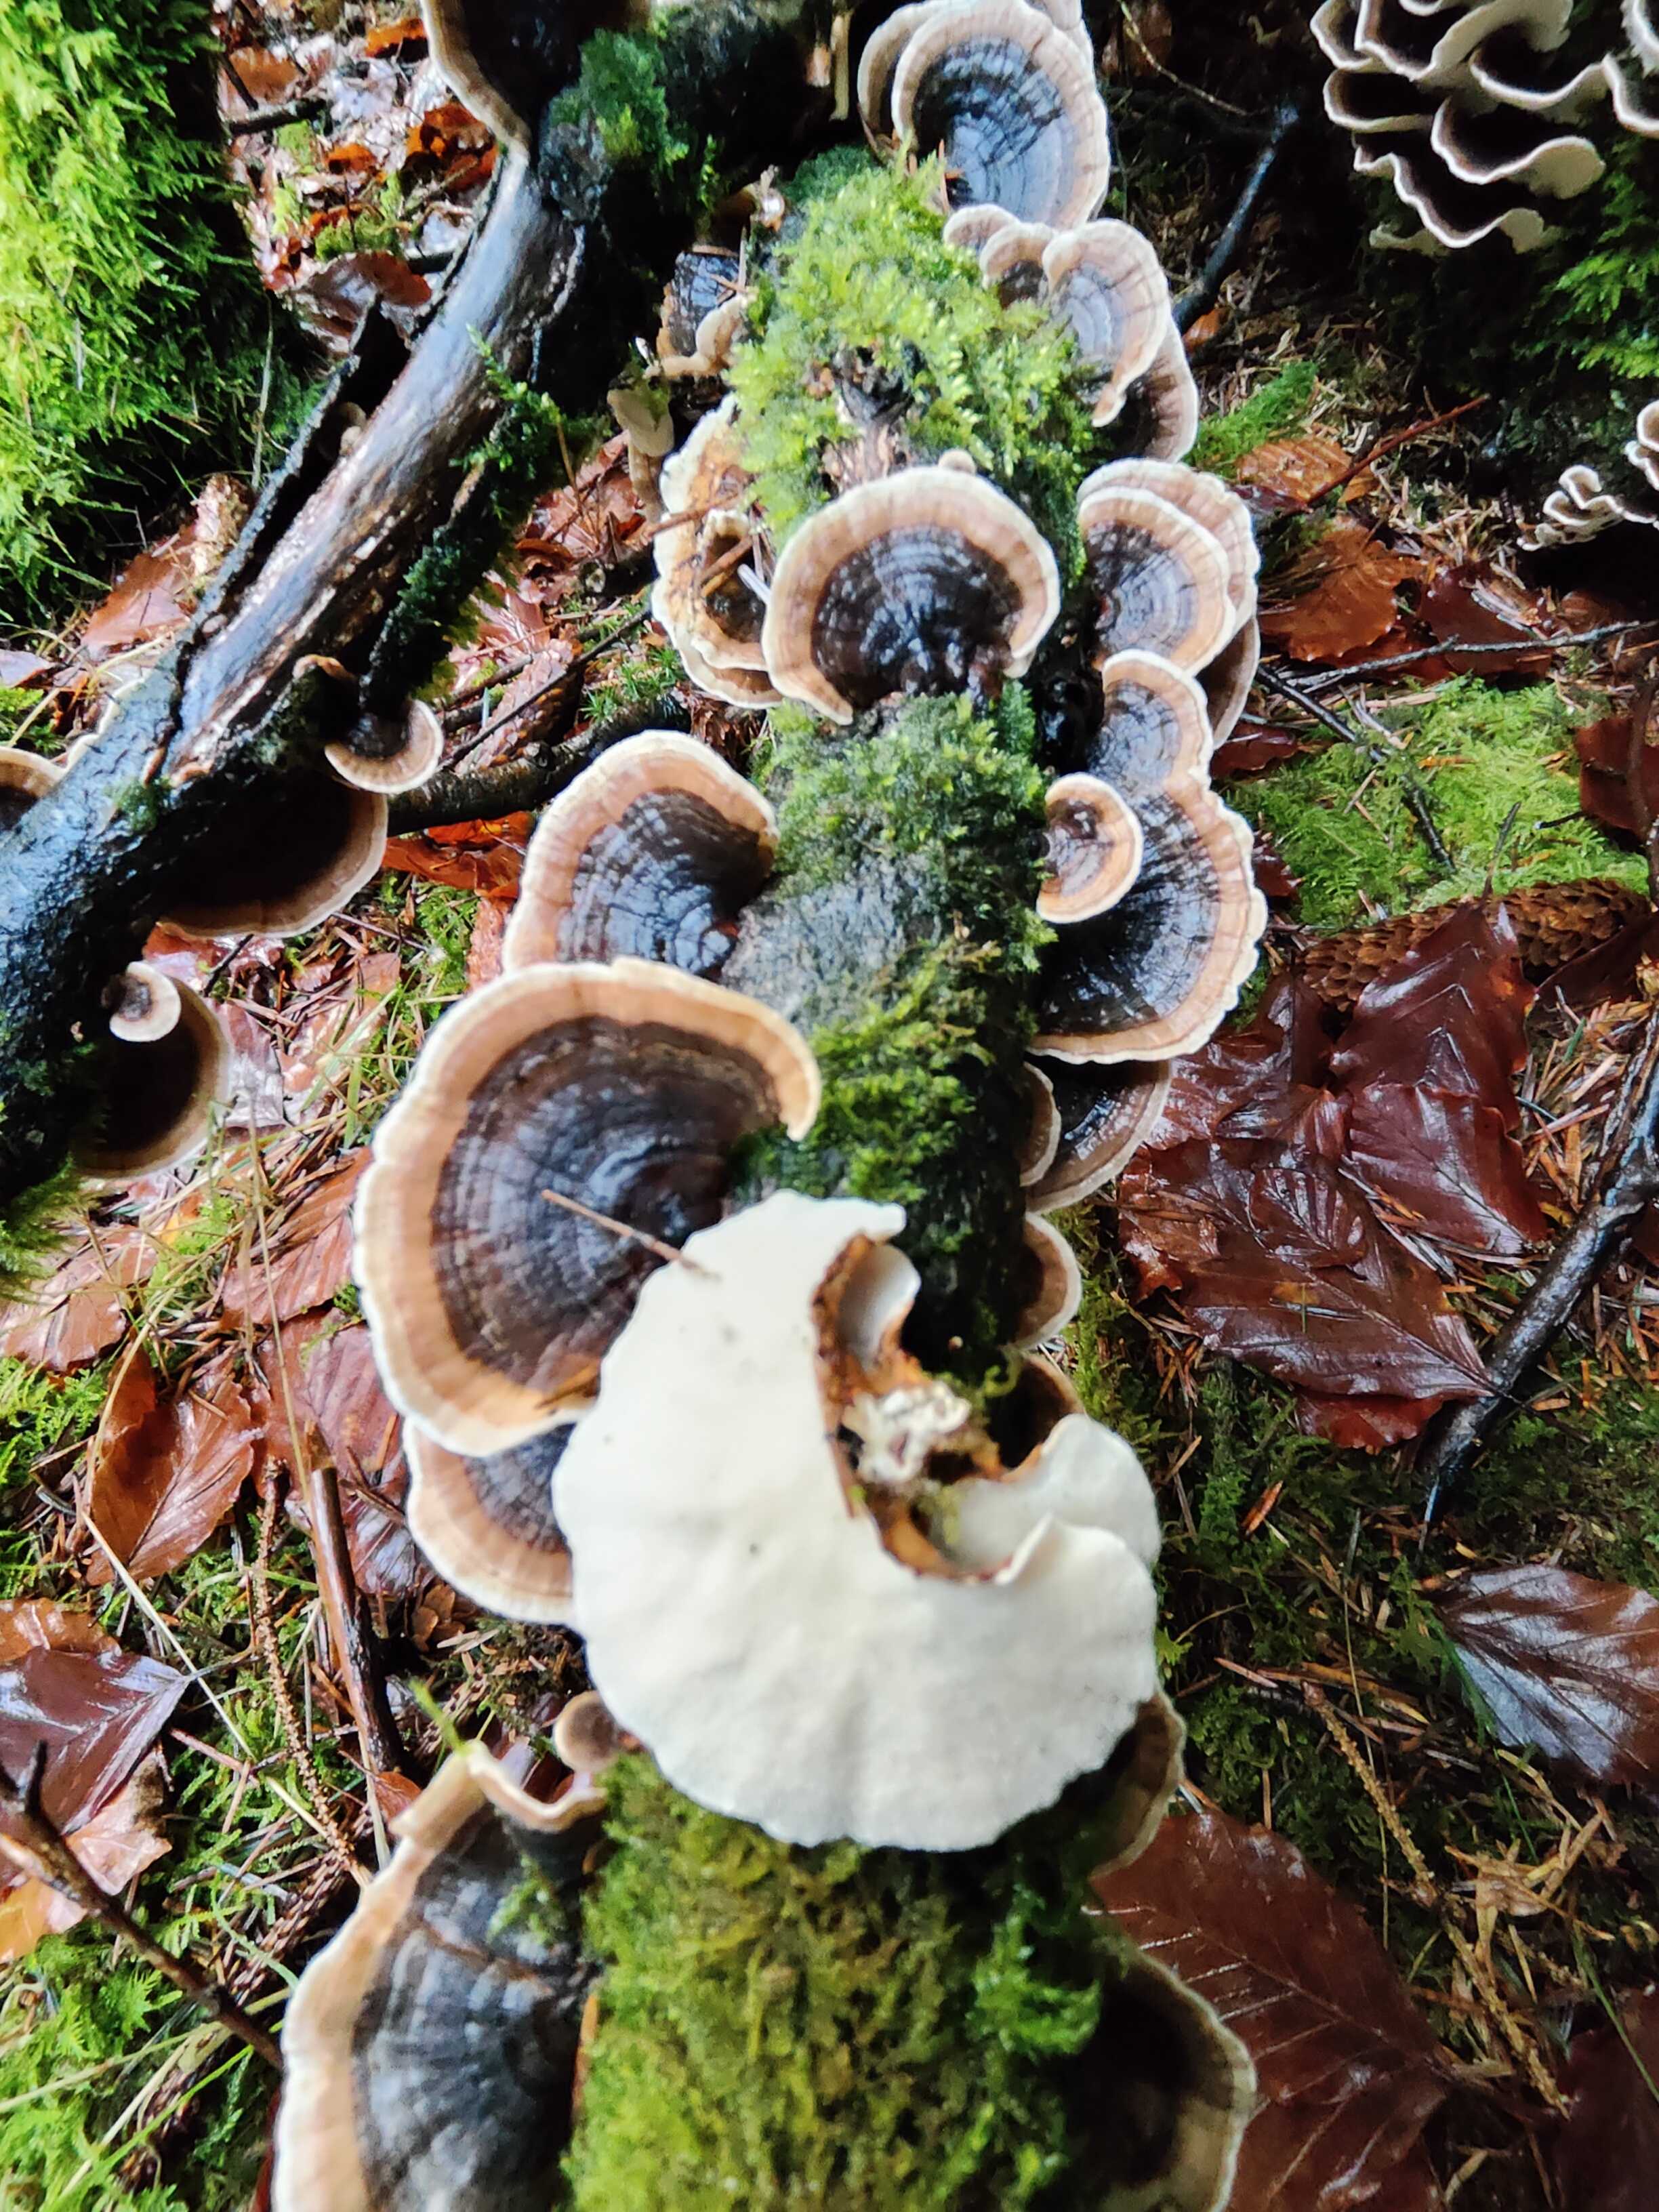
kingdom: Fungi
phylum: Basidiomycota
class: Agaricomycetes
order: Polyporales
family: Polyporaceae
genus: Trametes
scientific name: Trametes versicolor
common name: broget læderporesvamp
